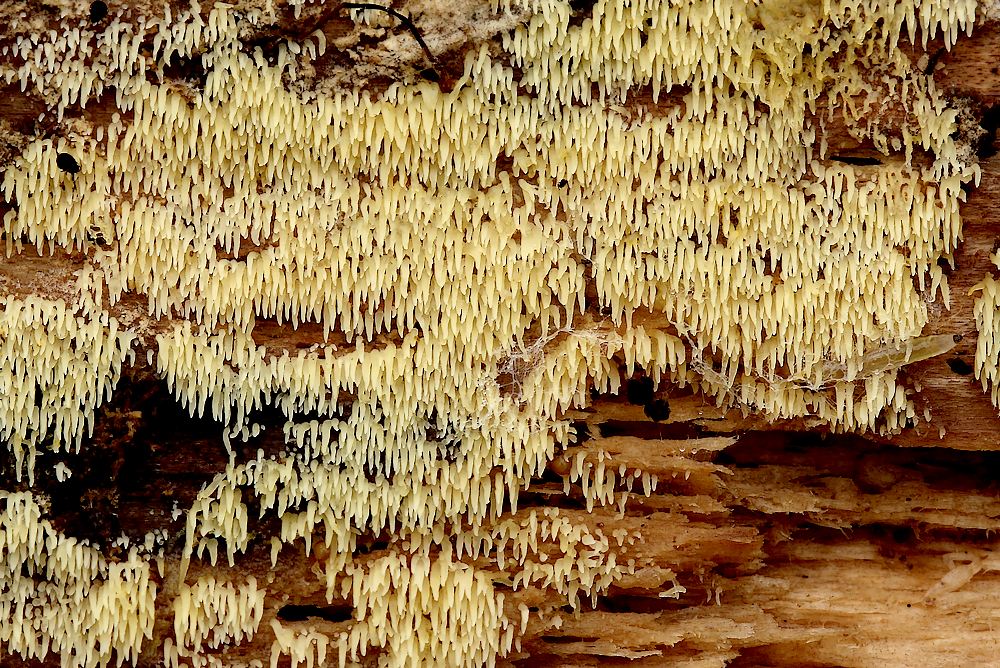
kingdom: Fungi
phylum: Basidiomycota
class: Agaricomycetes
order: Agaricales
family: Clavariaceae
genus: Mucronella
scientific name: Mucronella flava
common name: gul hængepig
